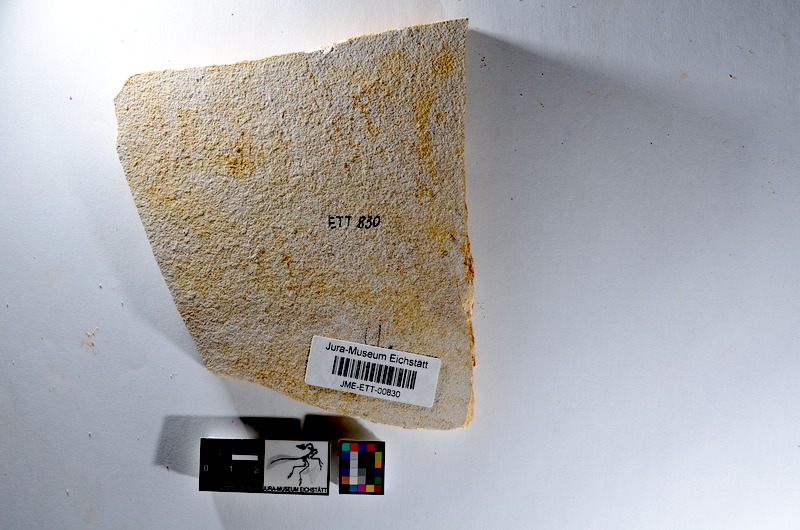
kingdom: Animalia
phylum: Chordata
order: Salmoniformes
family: Orthogonikleithridae
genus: Orthogonikleithrus
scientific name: Orthogonikleithrus hoelli
